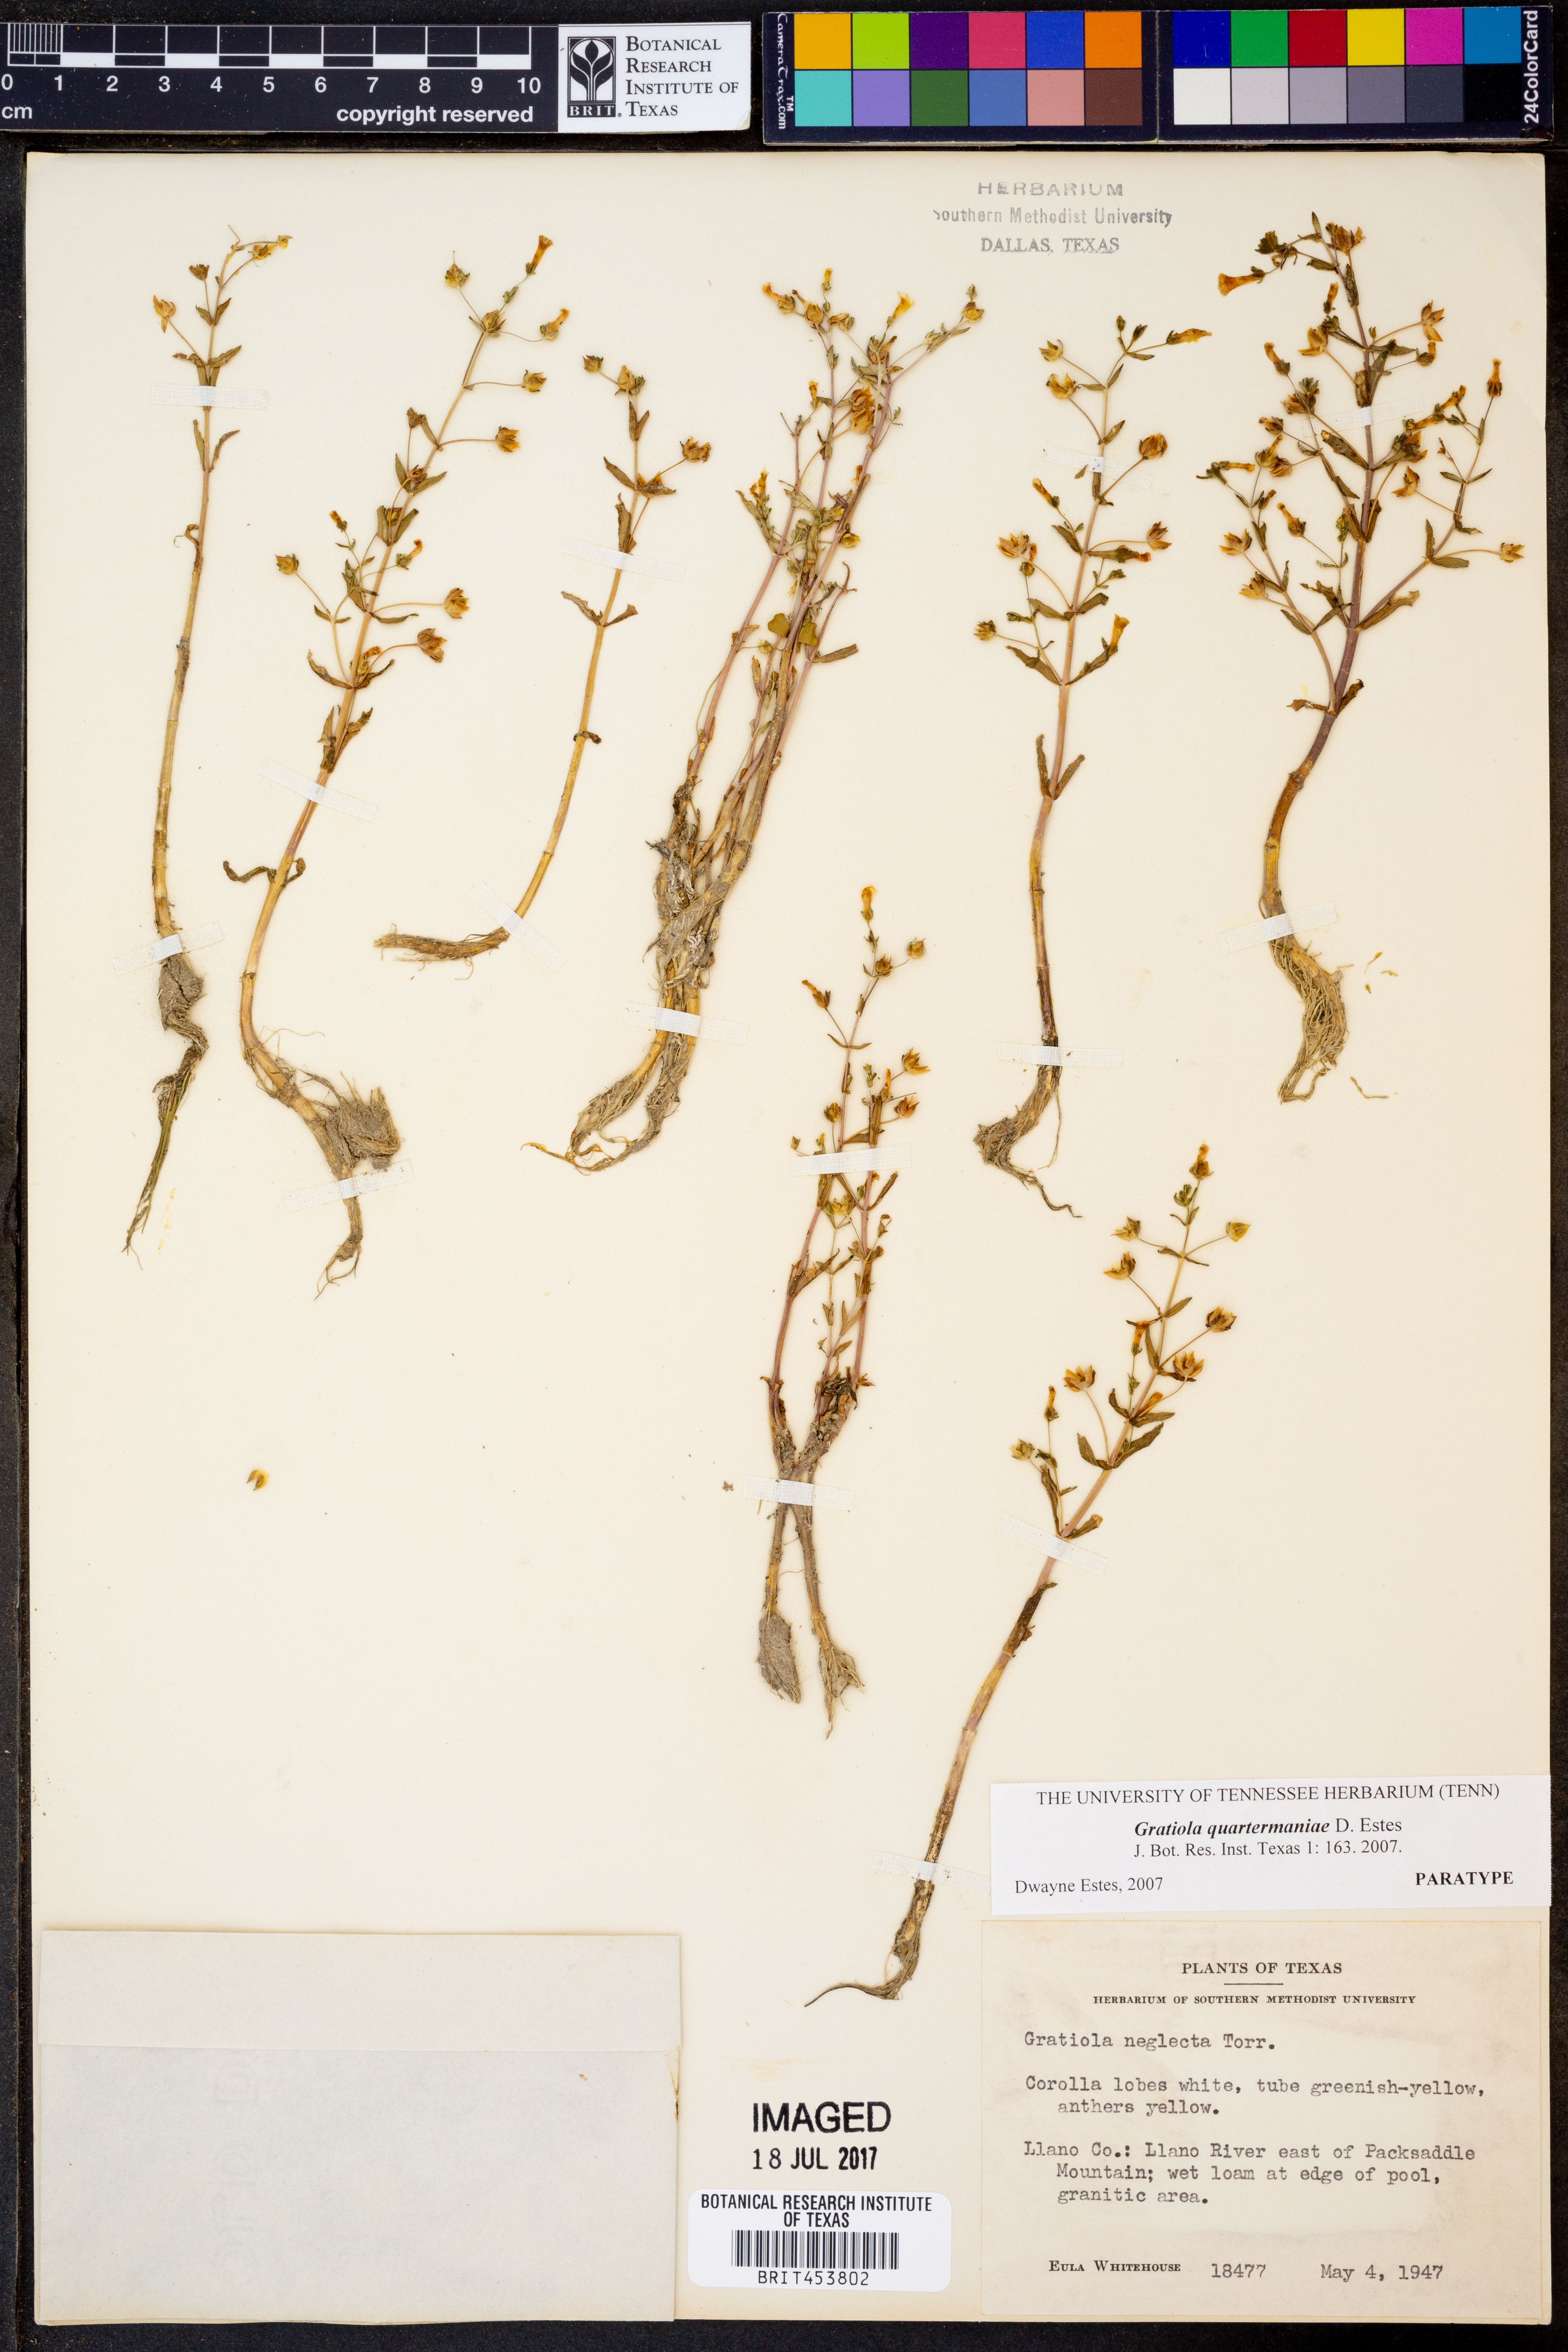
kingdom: Plantae
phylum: Tracheophyta
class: Magnoliopsida
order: Lamiales
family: Plantaginaceae
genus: Gratiola
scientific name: Gratiola quartermaniae
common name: Quarterman's hedge-hyssop
